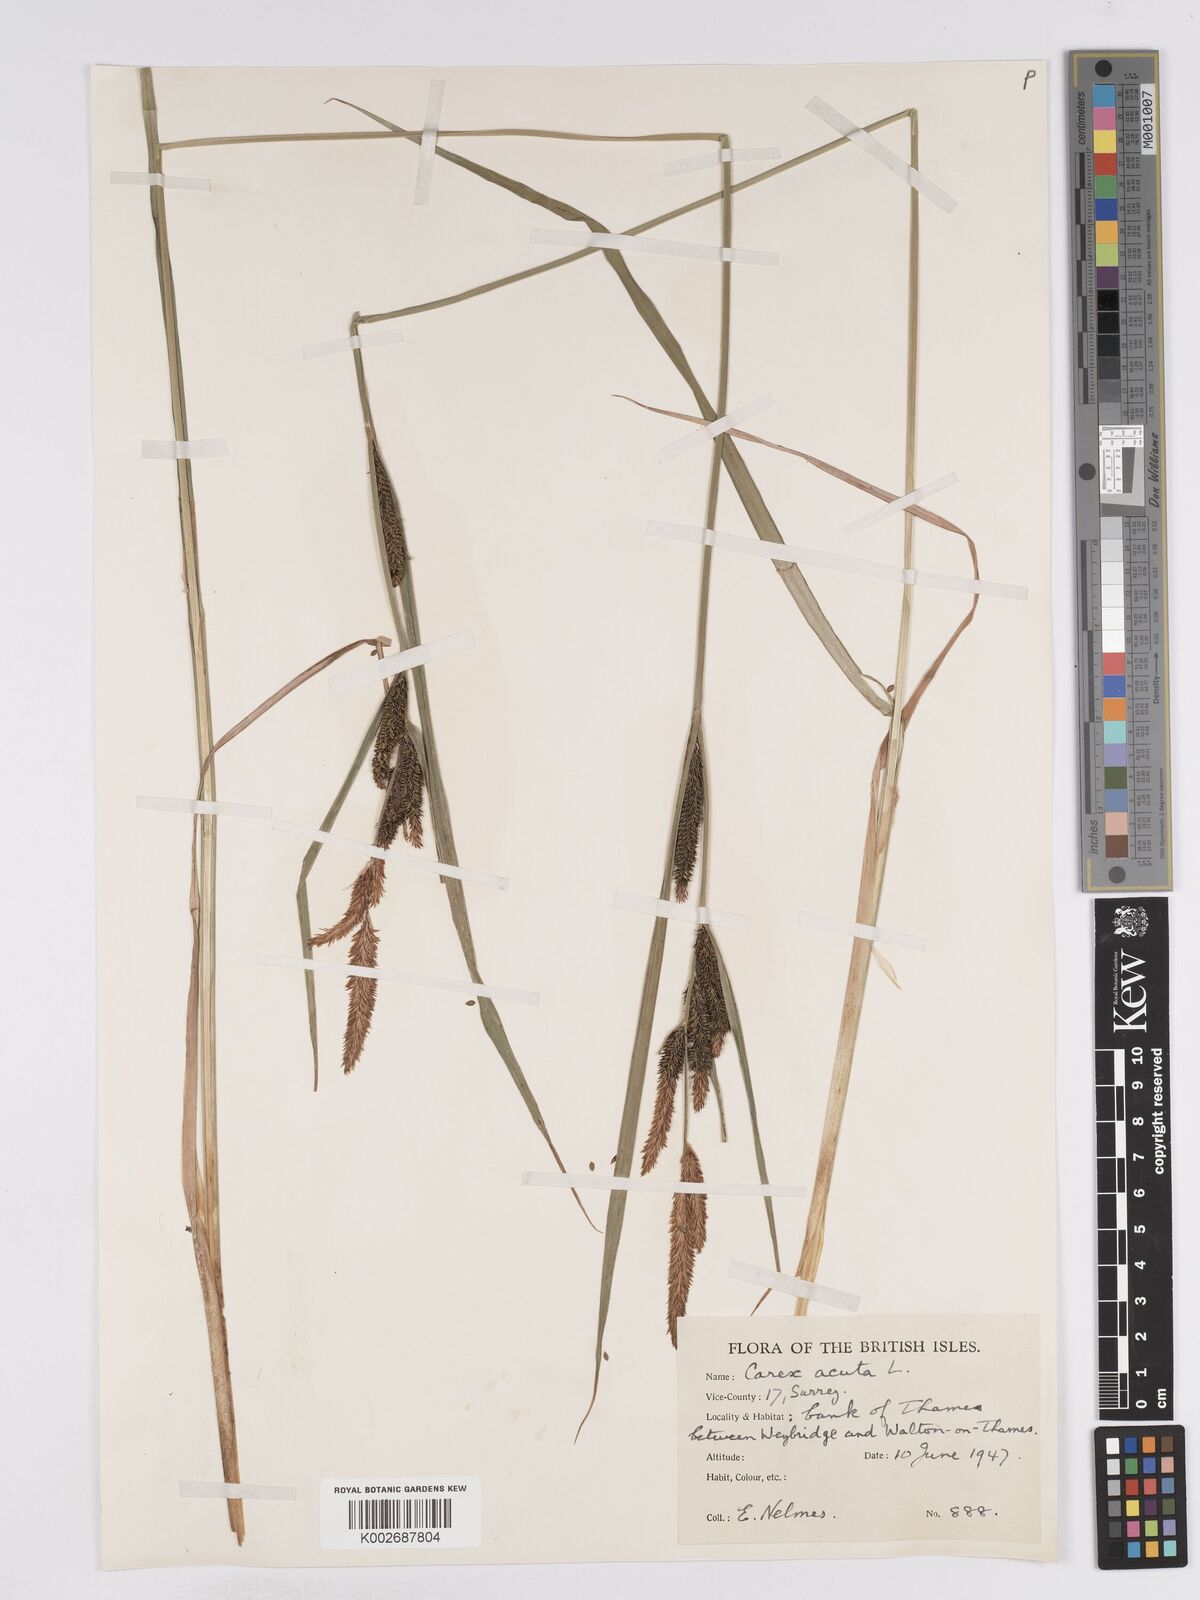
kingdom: Plantae
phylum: Tracheophyta
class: Liliopsida
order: Poales
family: Cyperaceae
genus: Carex
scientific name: Carex acuta
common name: Slender tufted-sedge
